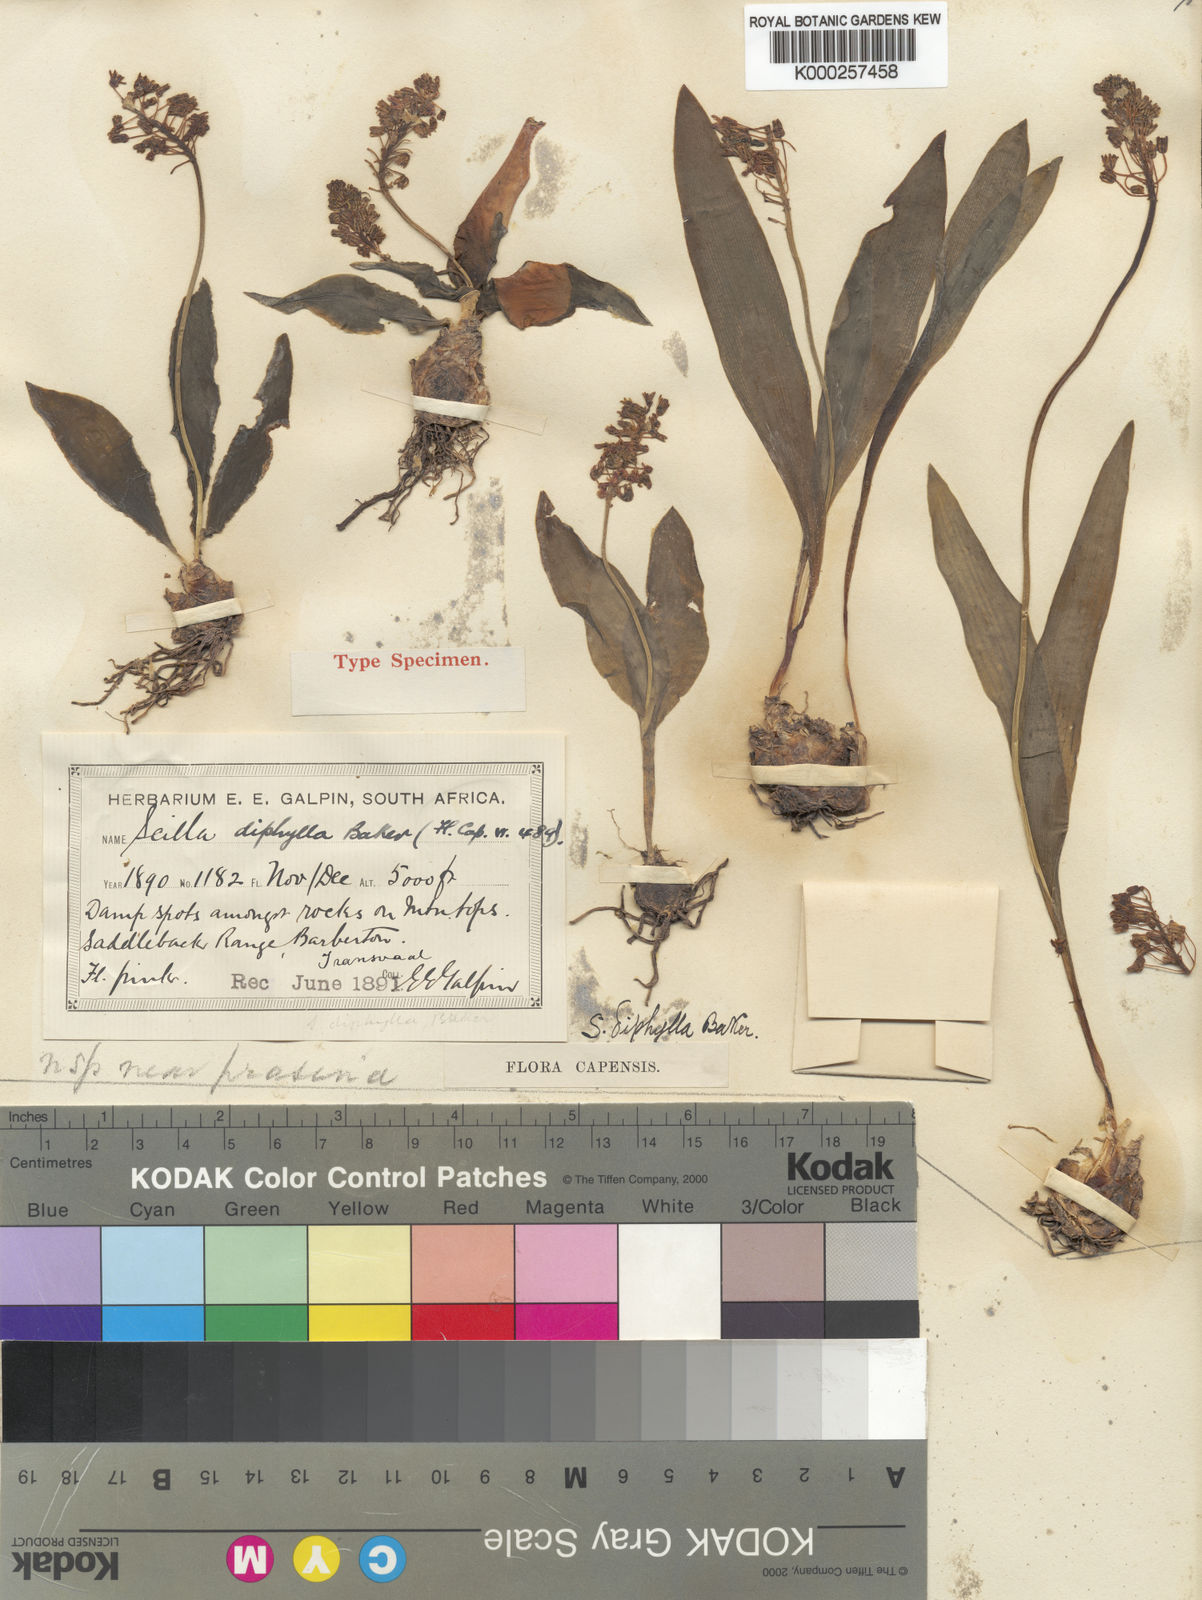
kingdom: Plantae
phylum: Tracheophyta
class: Liliopsida
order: Asparagales
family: Asparagaceae
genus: Ledebouria
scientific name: Ledebouria cooperi
